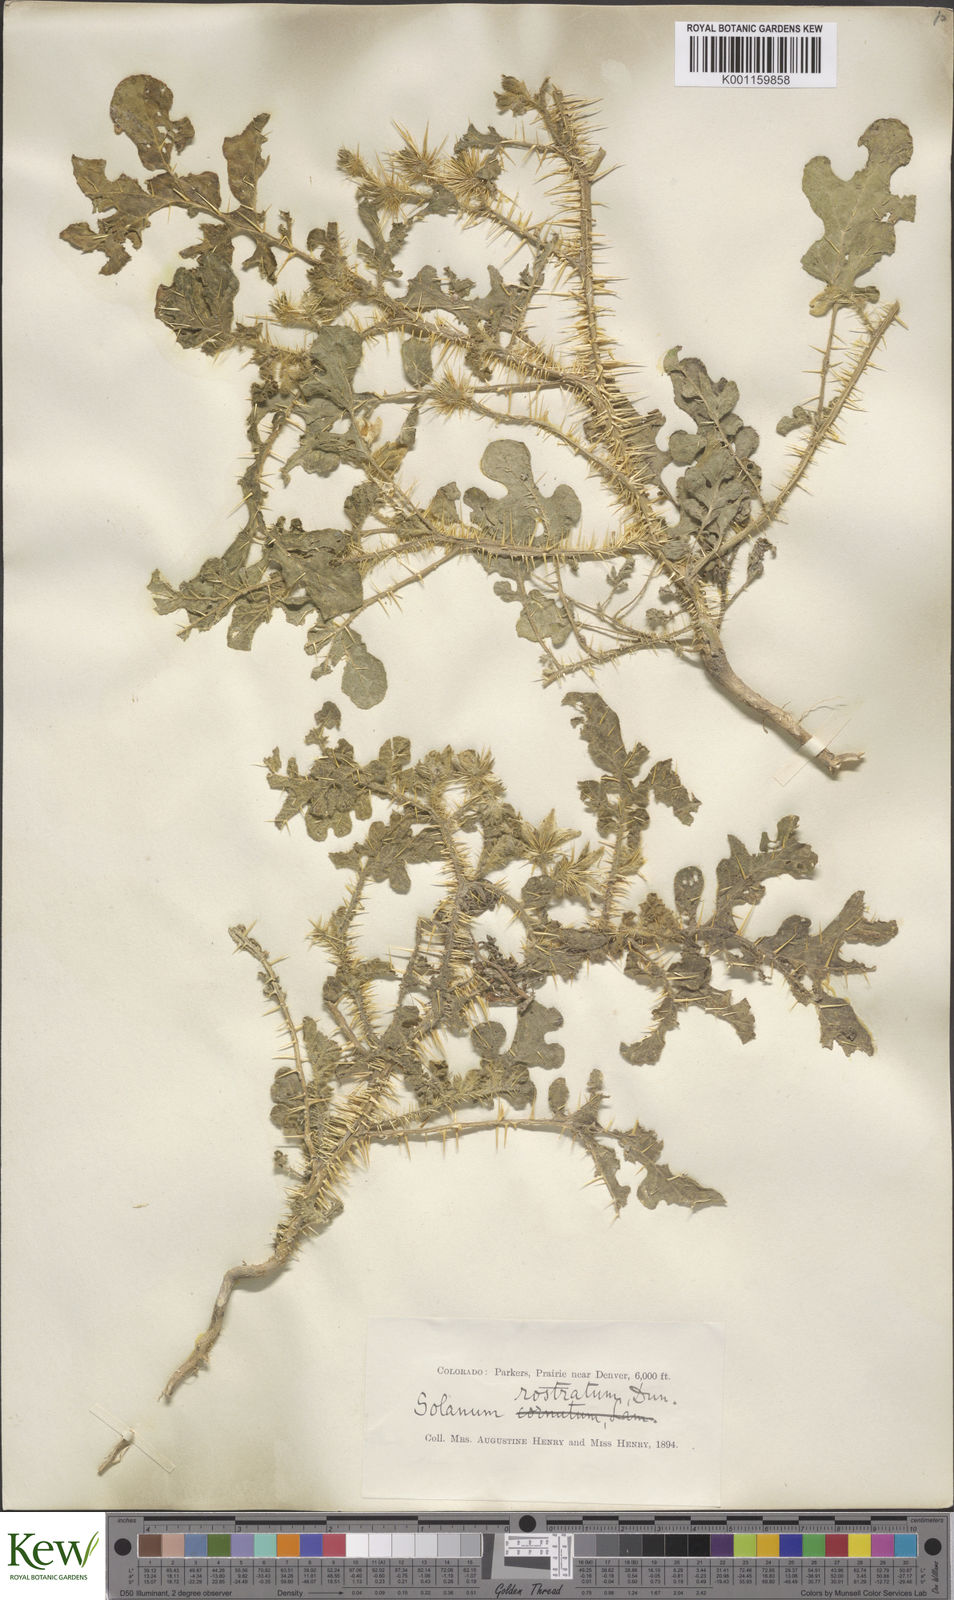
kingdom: Plantae
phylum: Tracheophyta
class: Magnoliopsida
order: Solanales
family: Solanaceae
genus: Solanum
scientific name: Solanum angustifolium
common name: Buffalobur nightshade
